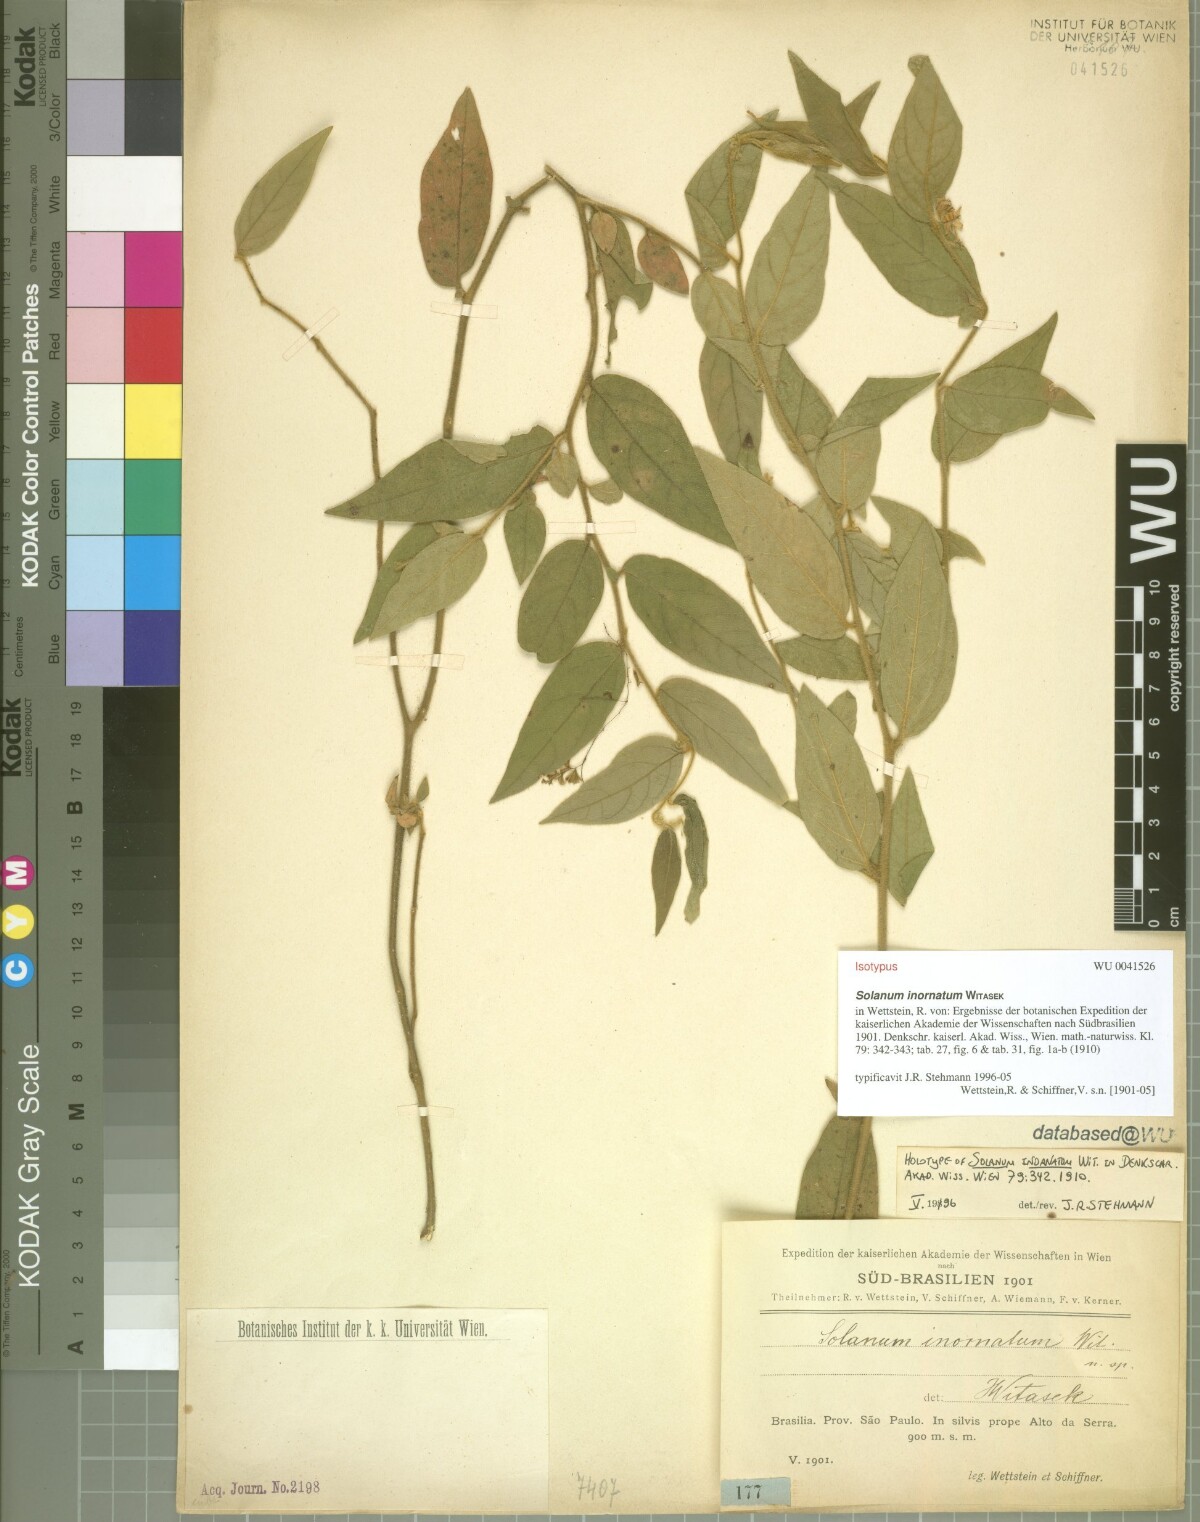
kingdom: Plantae
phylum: Tracheophyta
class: Magnoliopsida
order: Solanales
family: Solanaceae
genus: Solanum
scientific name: Solanum inornatum
